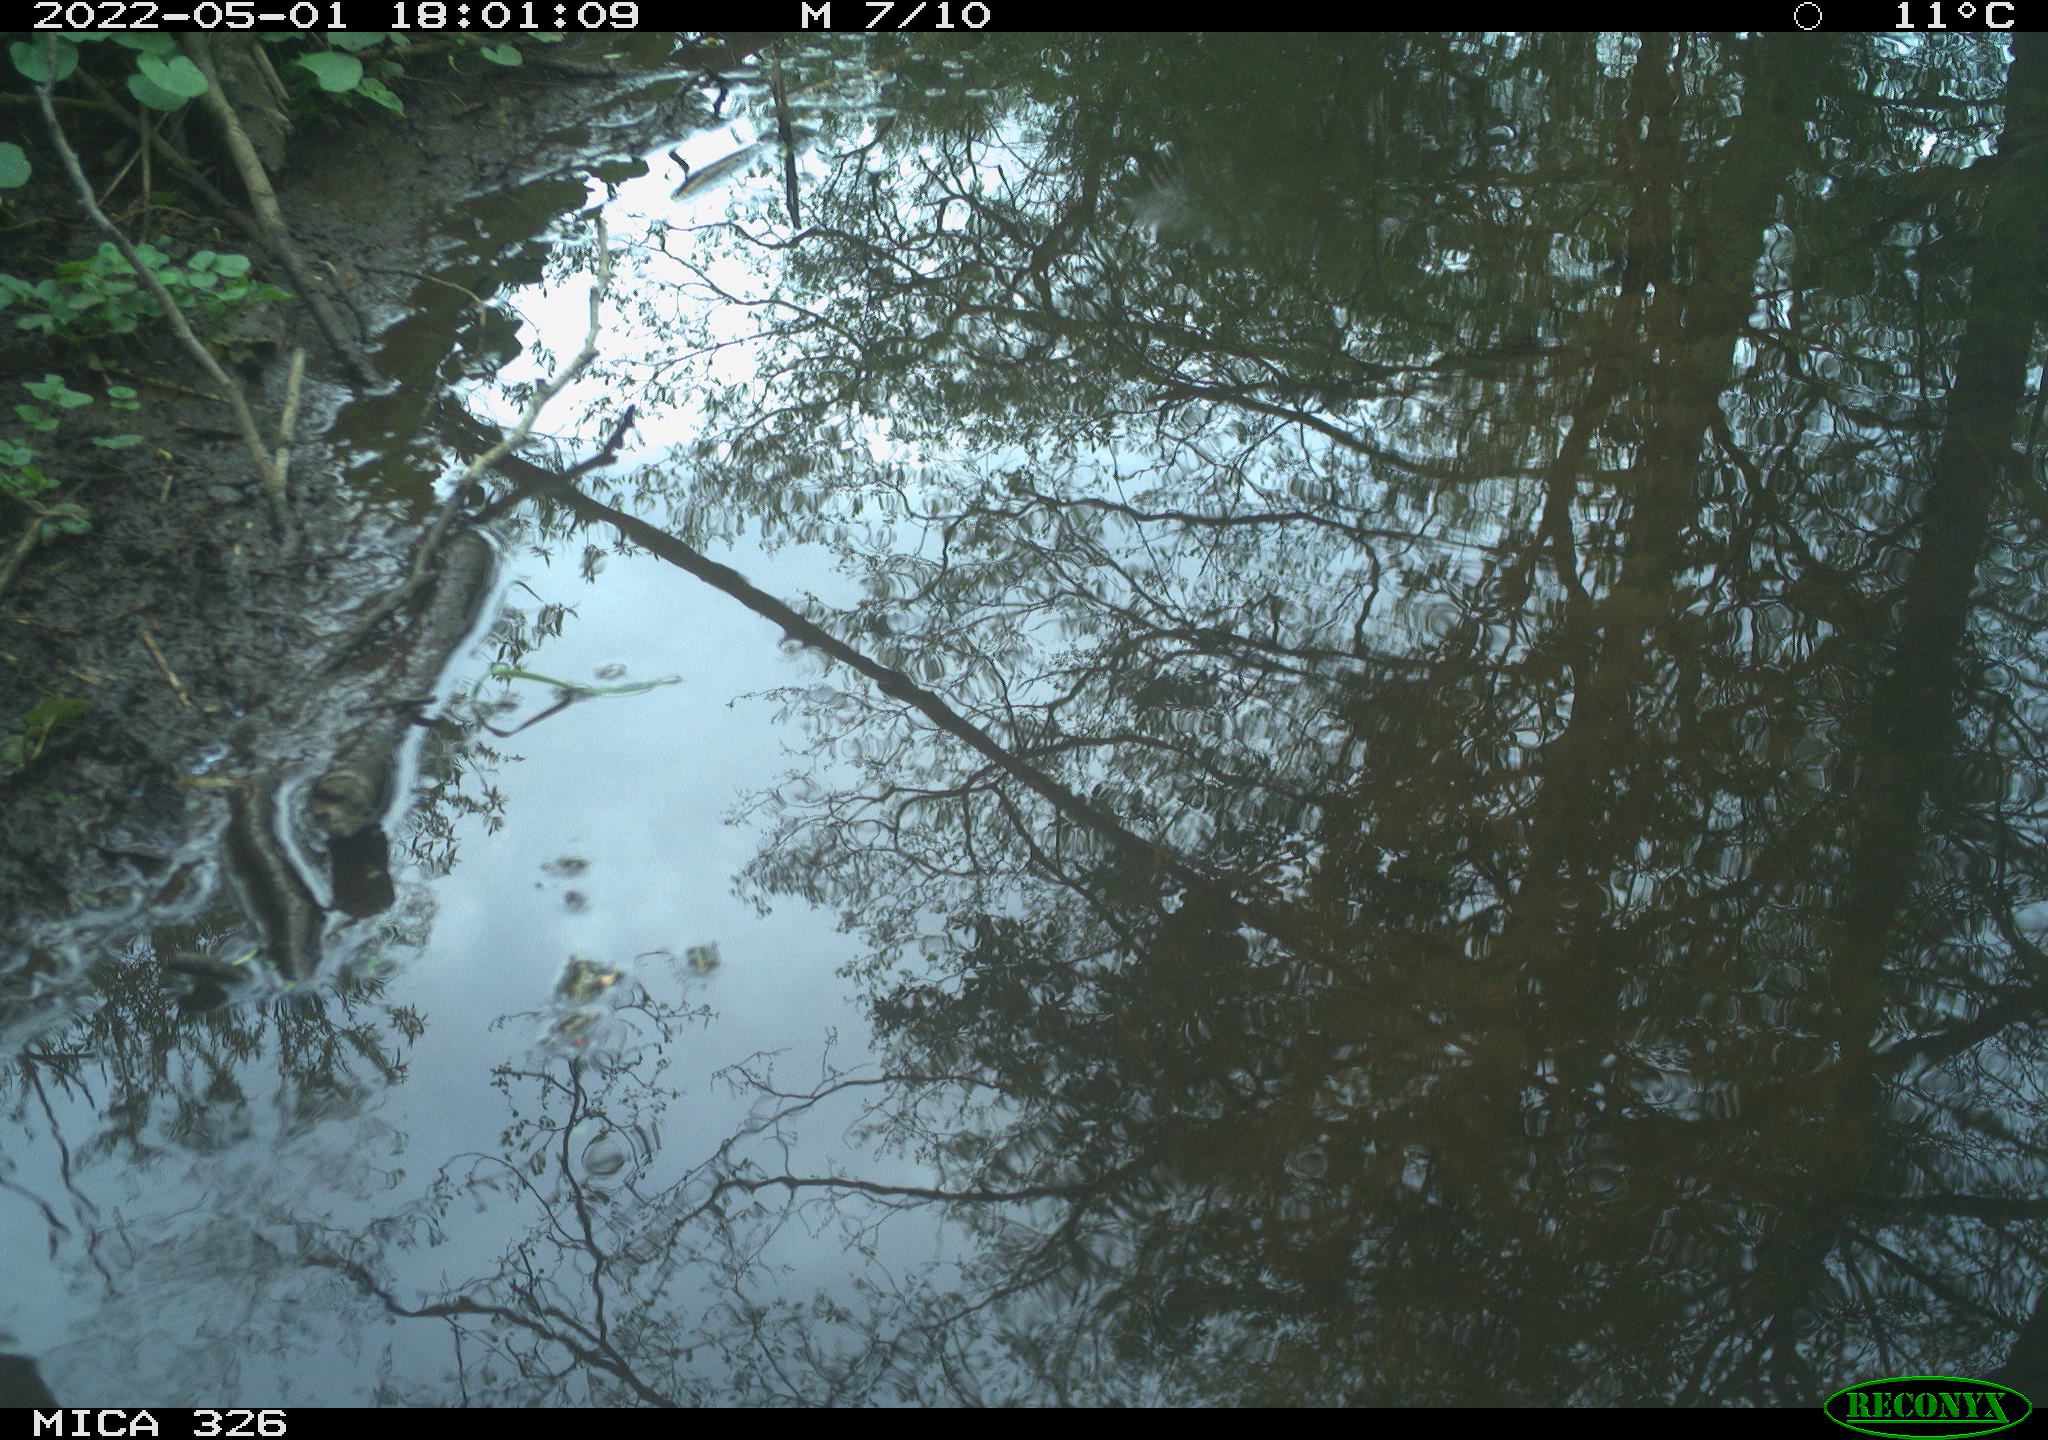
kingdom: Animalia
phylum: Chordata
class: Aves
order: Passeriformes
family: Turdidae
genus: Turdus
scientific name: Turdus merula
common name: Common blackbird
